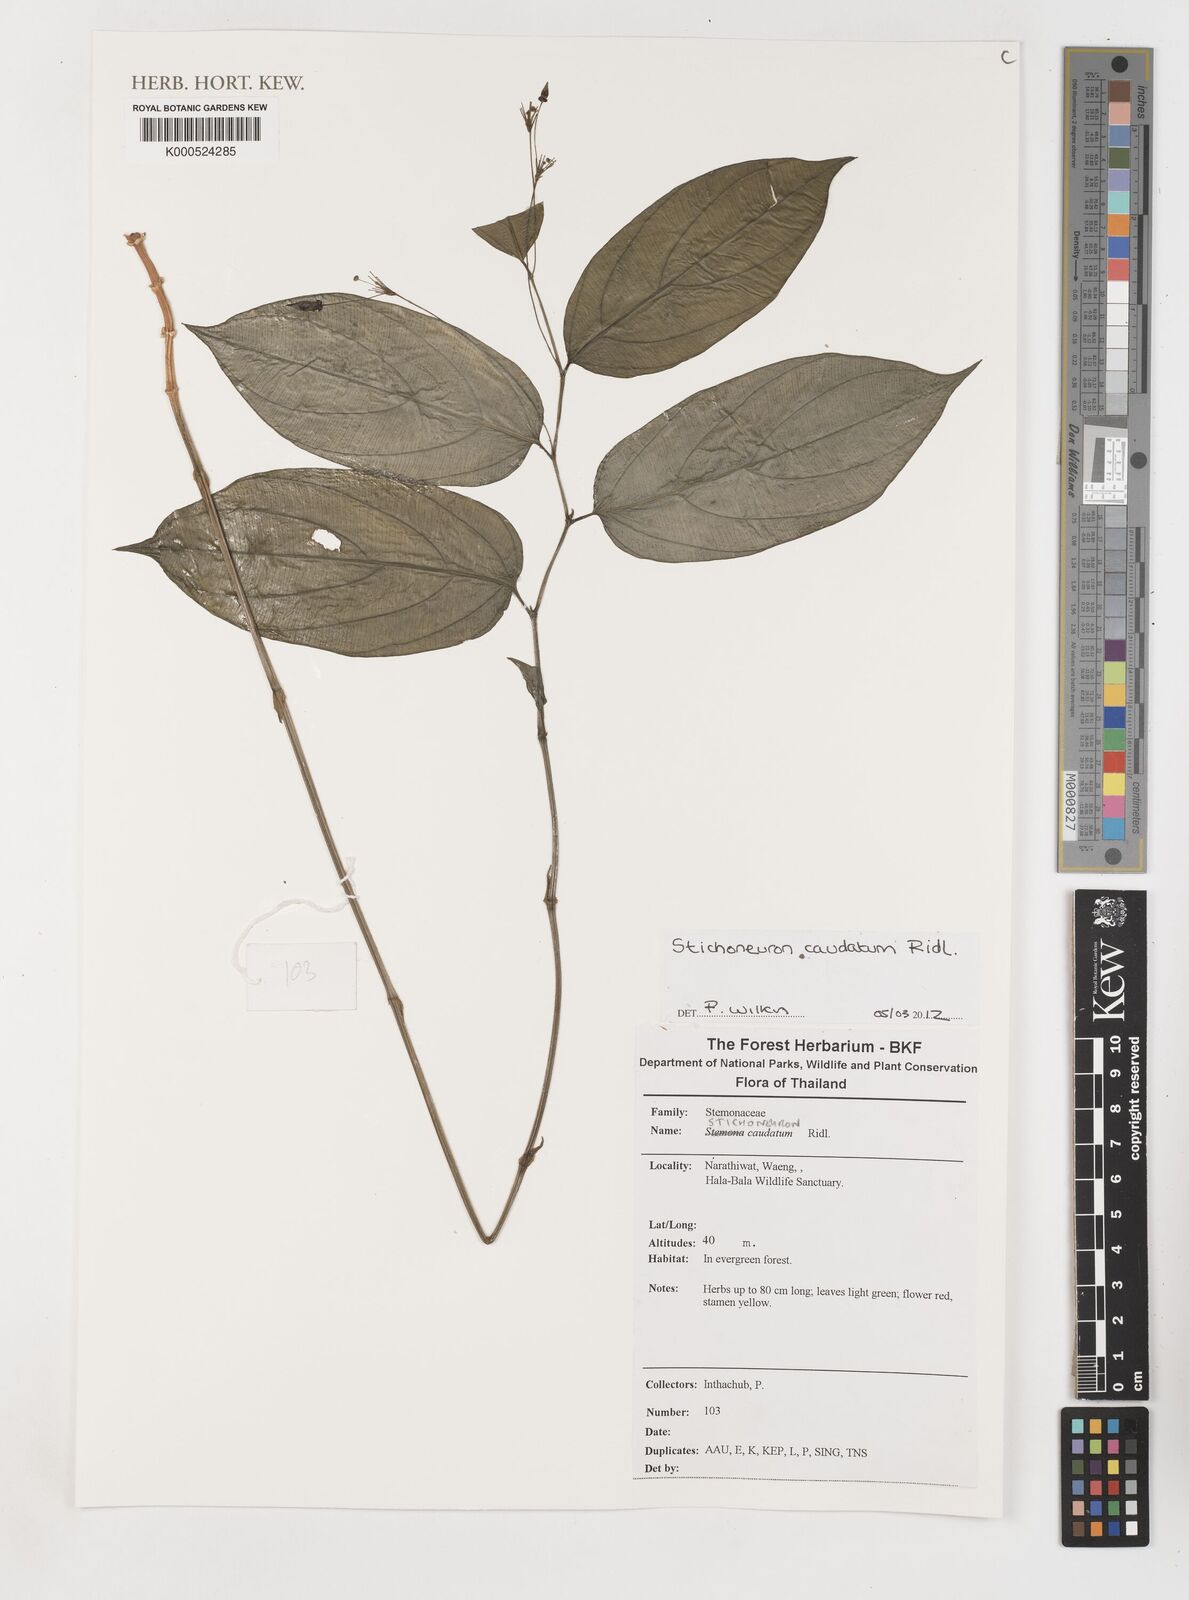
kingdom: Plantae
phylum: Tracheophyta
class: Liliopsida
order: Pandanales
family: Stemonaceae
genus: Stichoneuron
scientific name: Stichoneuron caudatum
